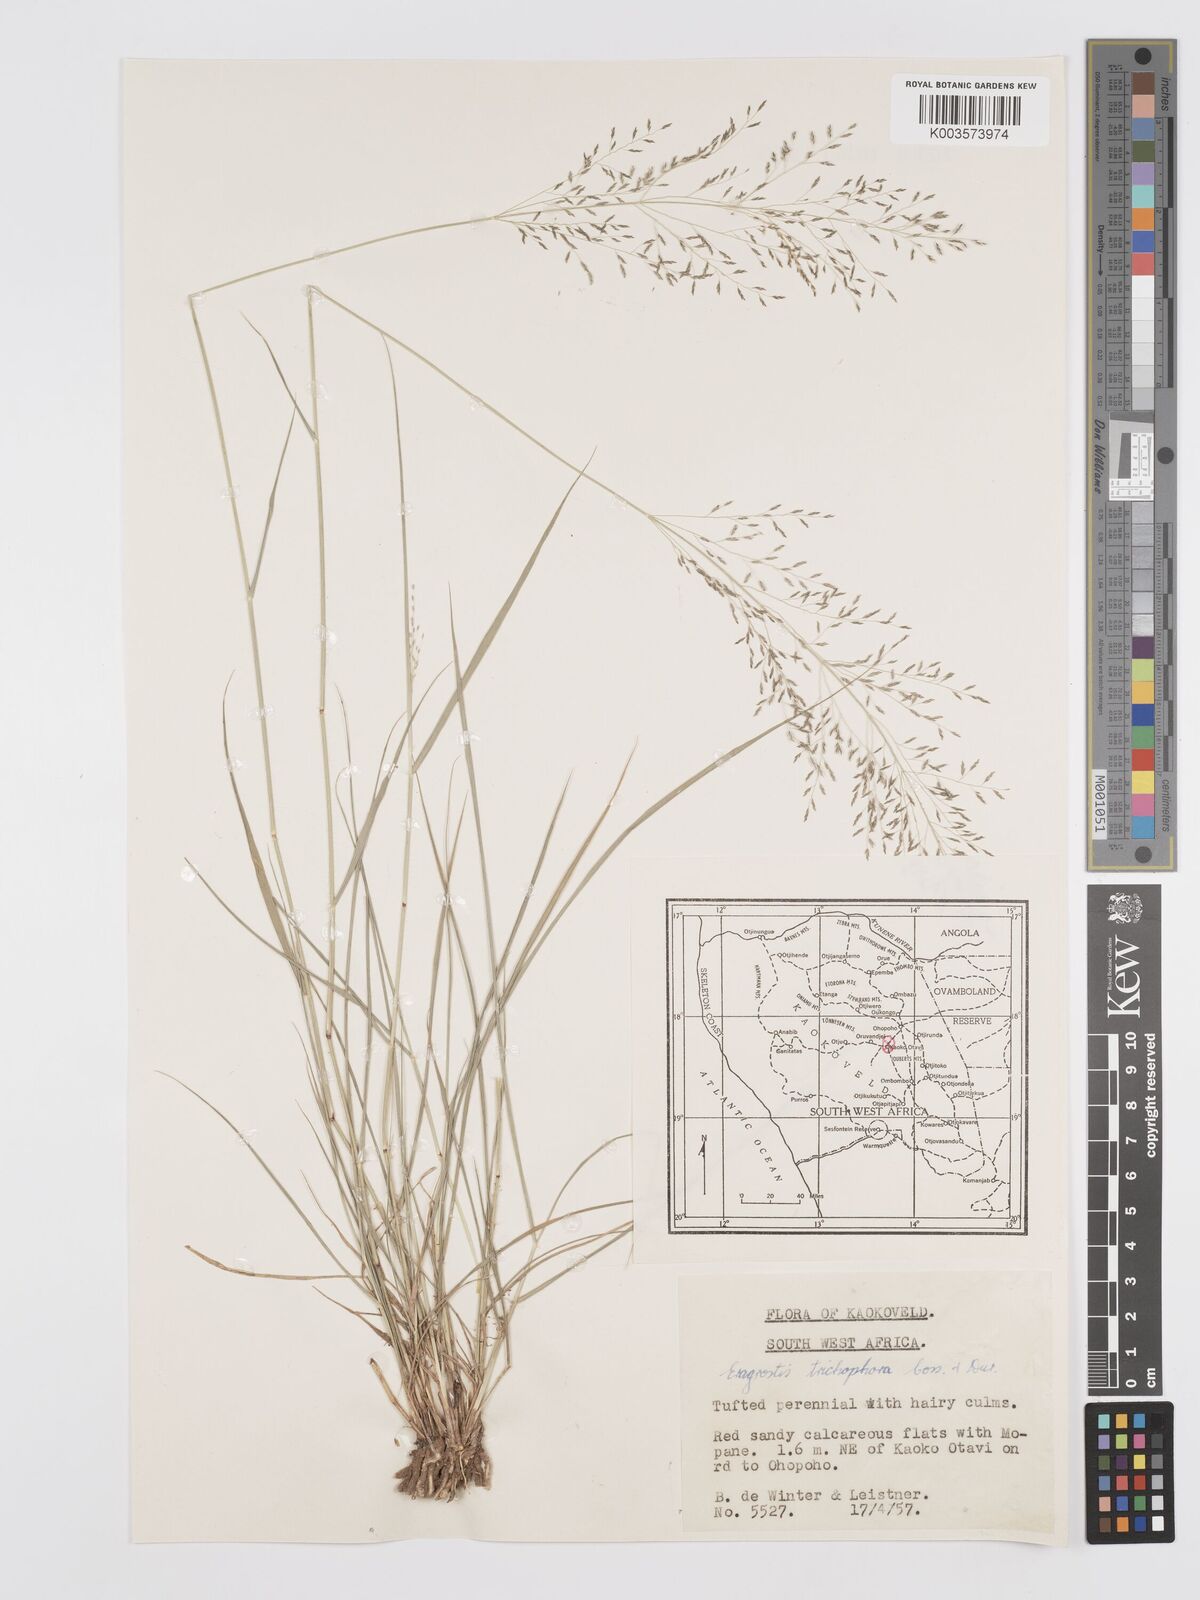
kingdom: Plantae
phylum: Tracheophyta
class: Liliopsida
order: Poales
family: Poaceae
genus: Eragrostis
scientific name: Eragrostis cylindriflora
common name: Cylinderflower lovegrass
